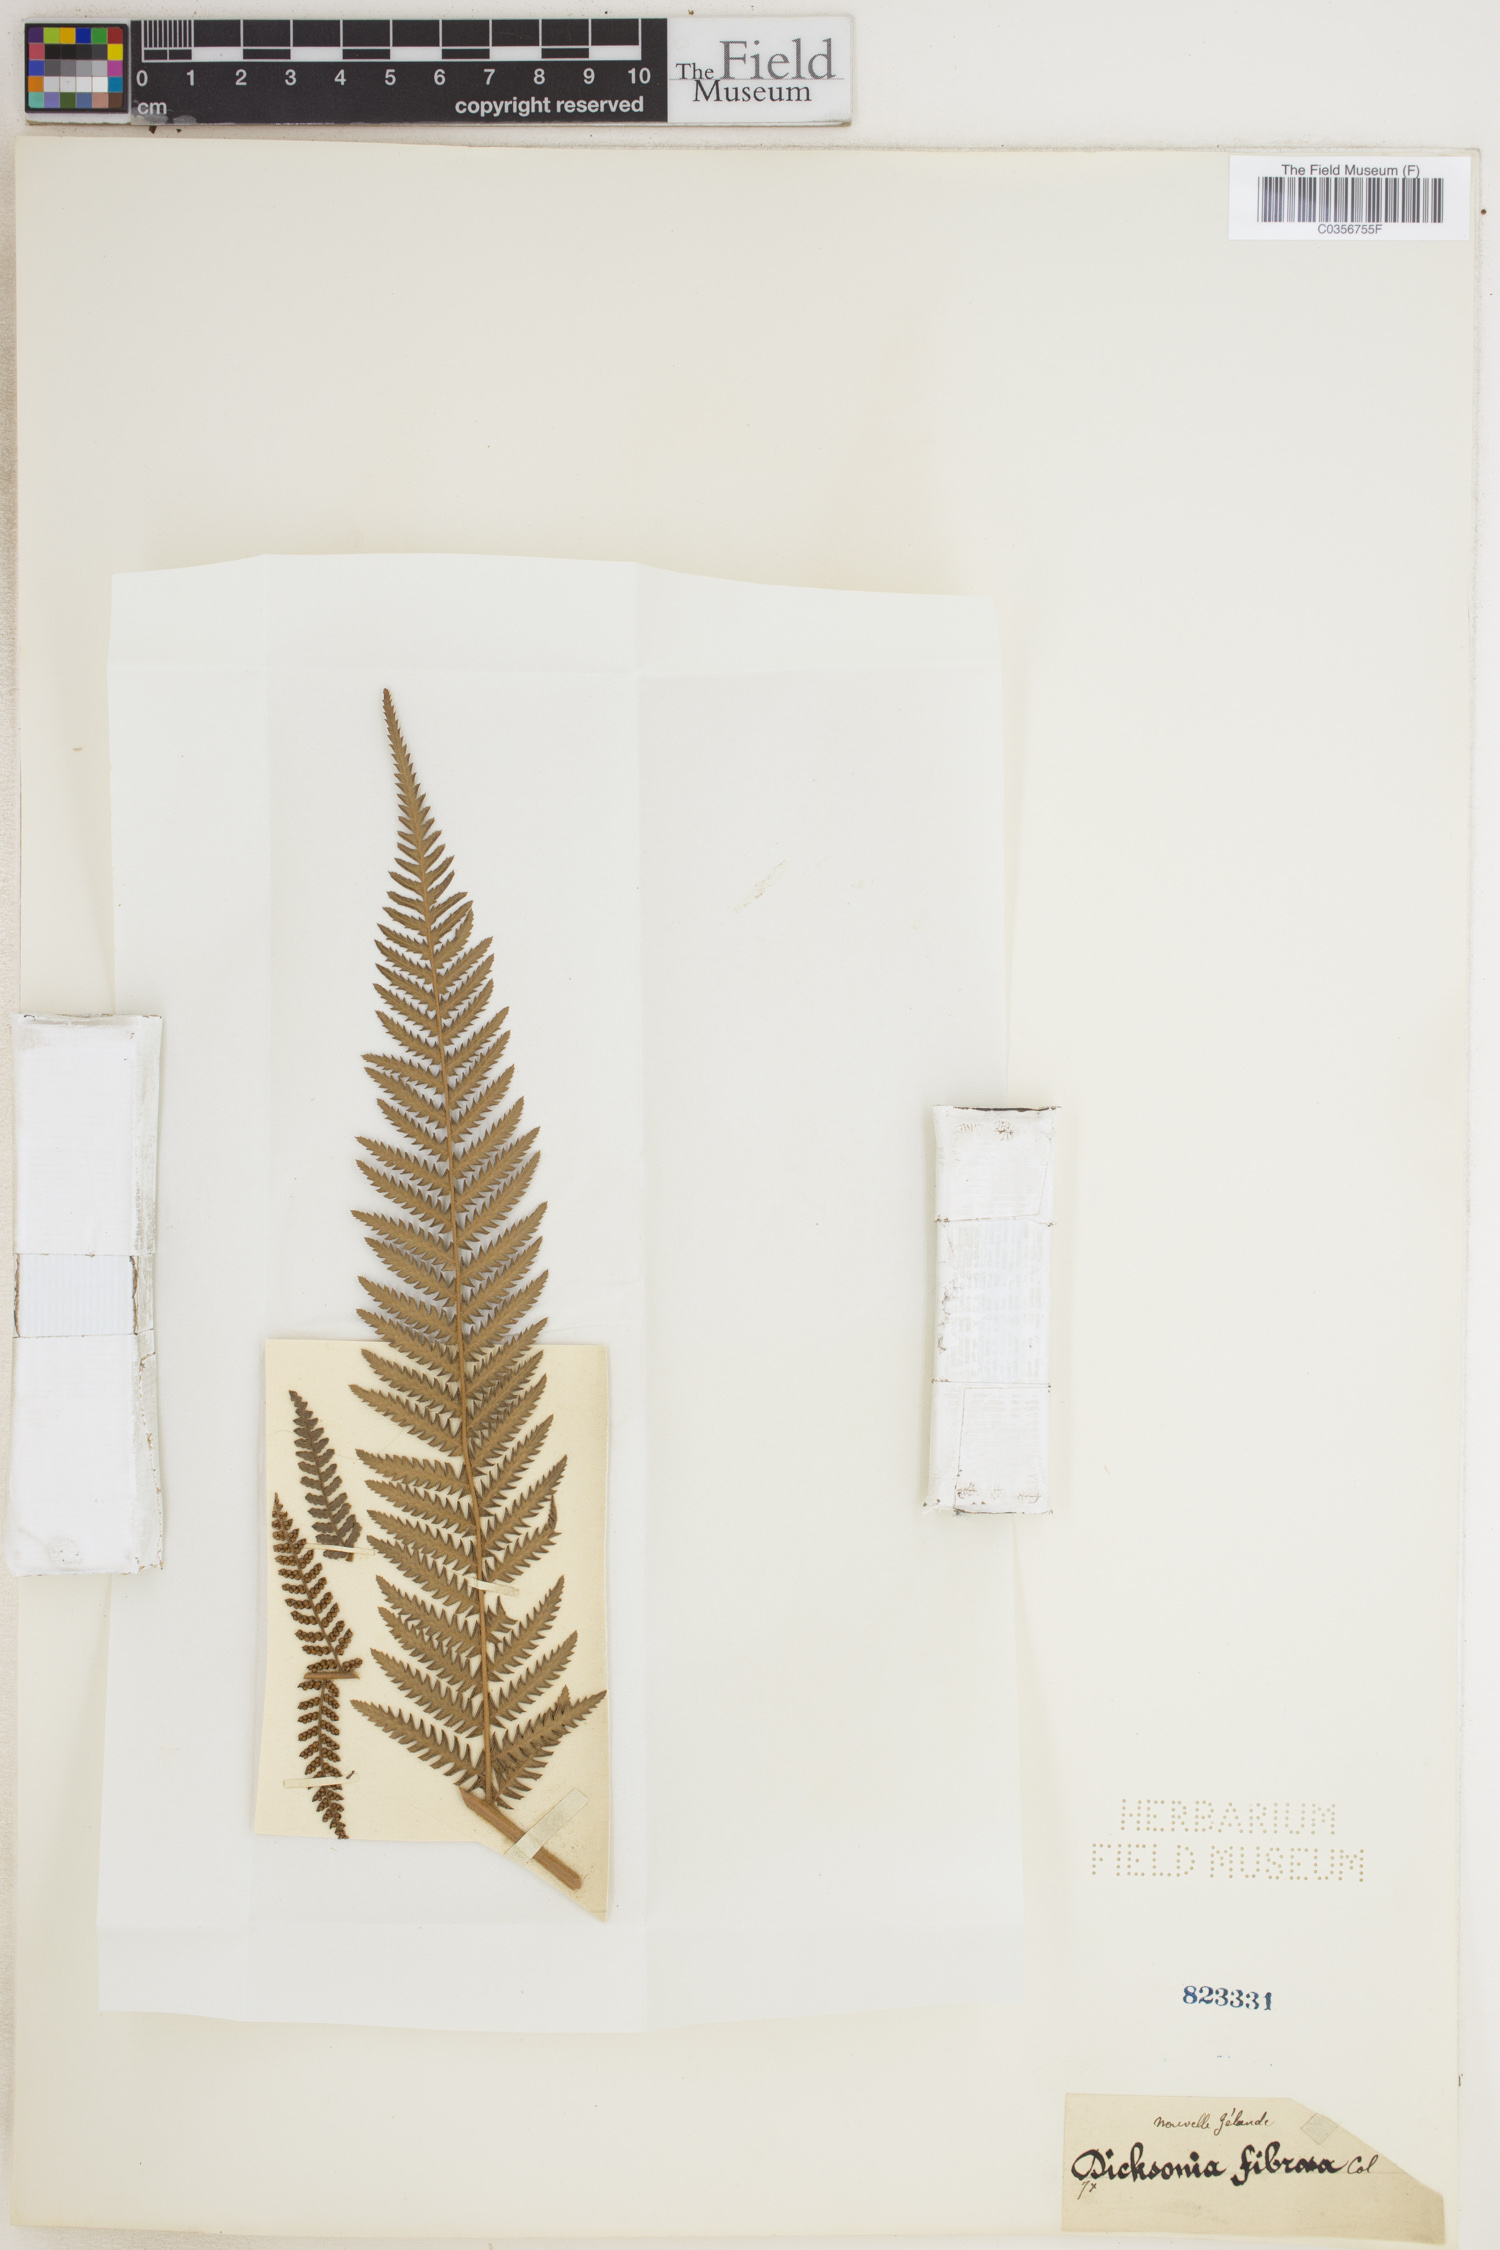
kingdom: Plantae
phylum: Tracheophyta
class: Polypodiopsida
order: Cyatheales
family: Dicksoniaceae
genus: Dicksonia
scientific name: Dicksonia fibrosa
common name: Golden tree fern
